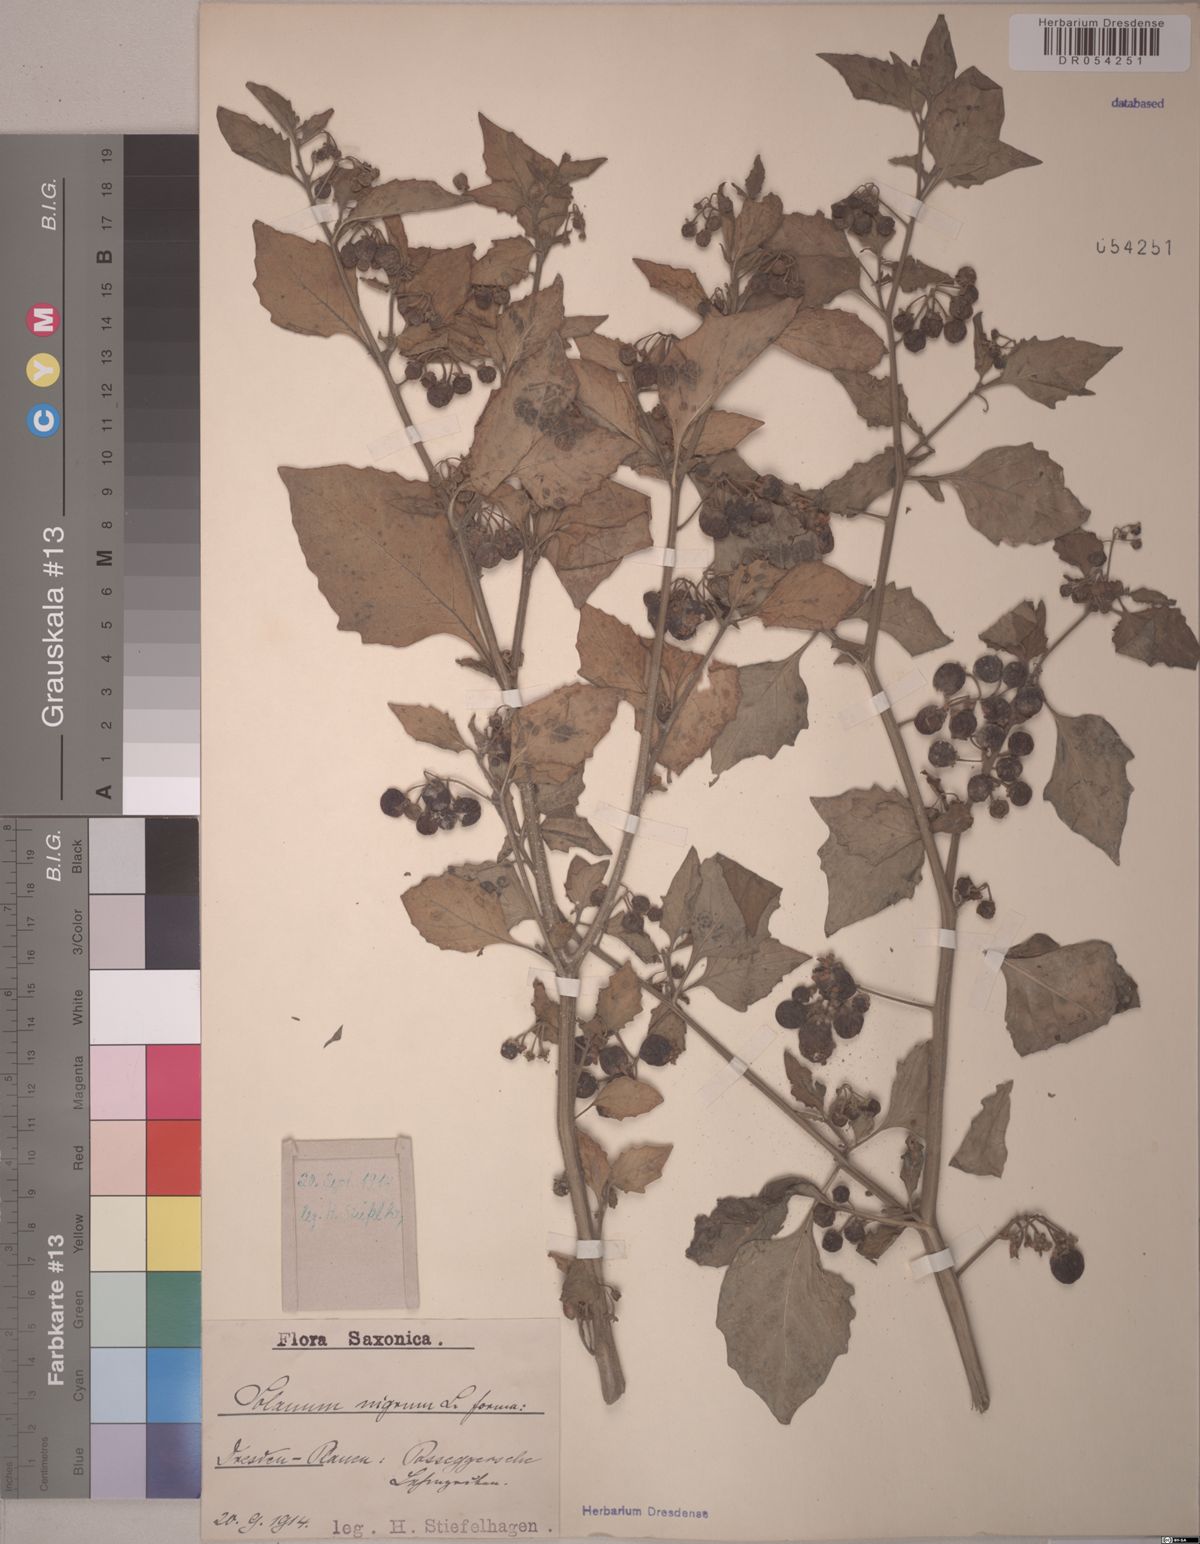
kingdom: Plantae
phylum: Tracheophyta
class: Magnoliopsida
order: Solanales
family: Solanaceae
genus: Solanum
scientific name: Solanum nigrum
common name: Black nightshade
